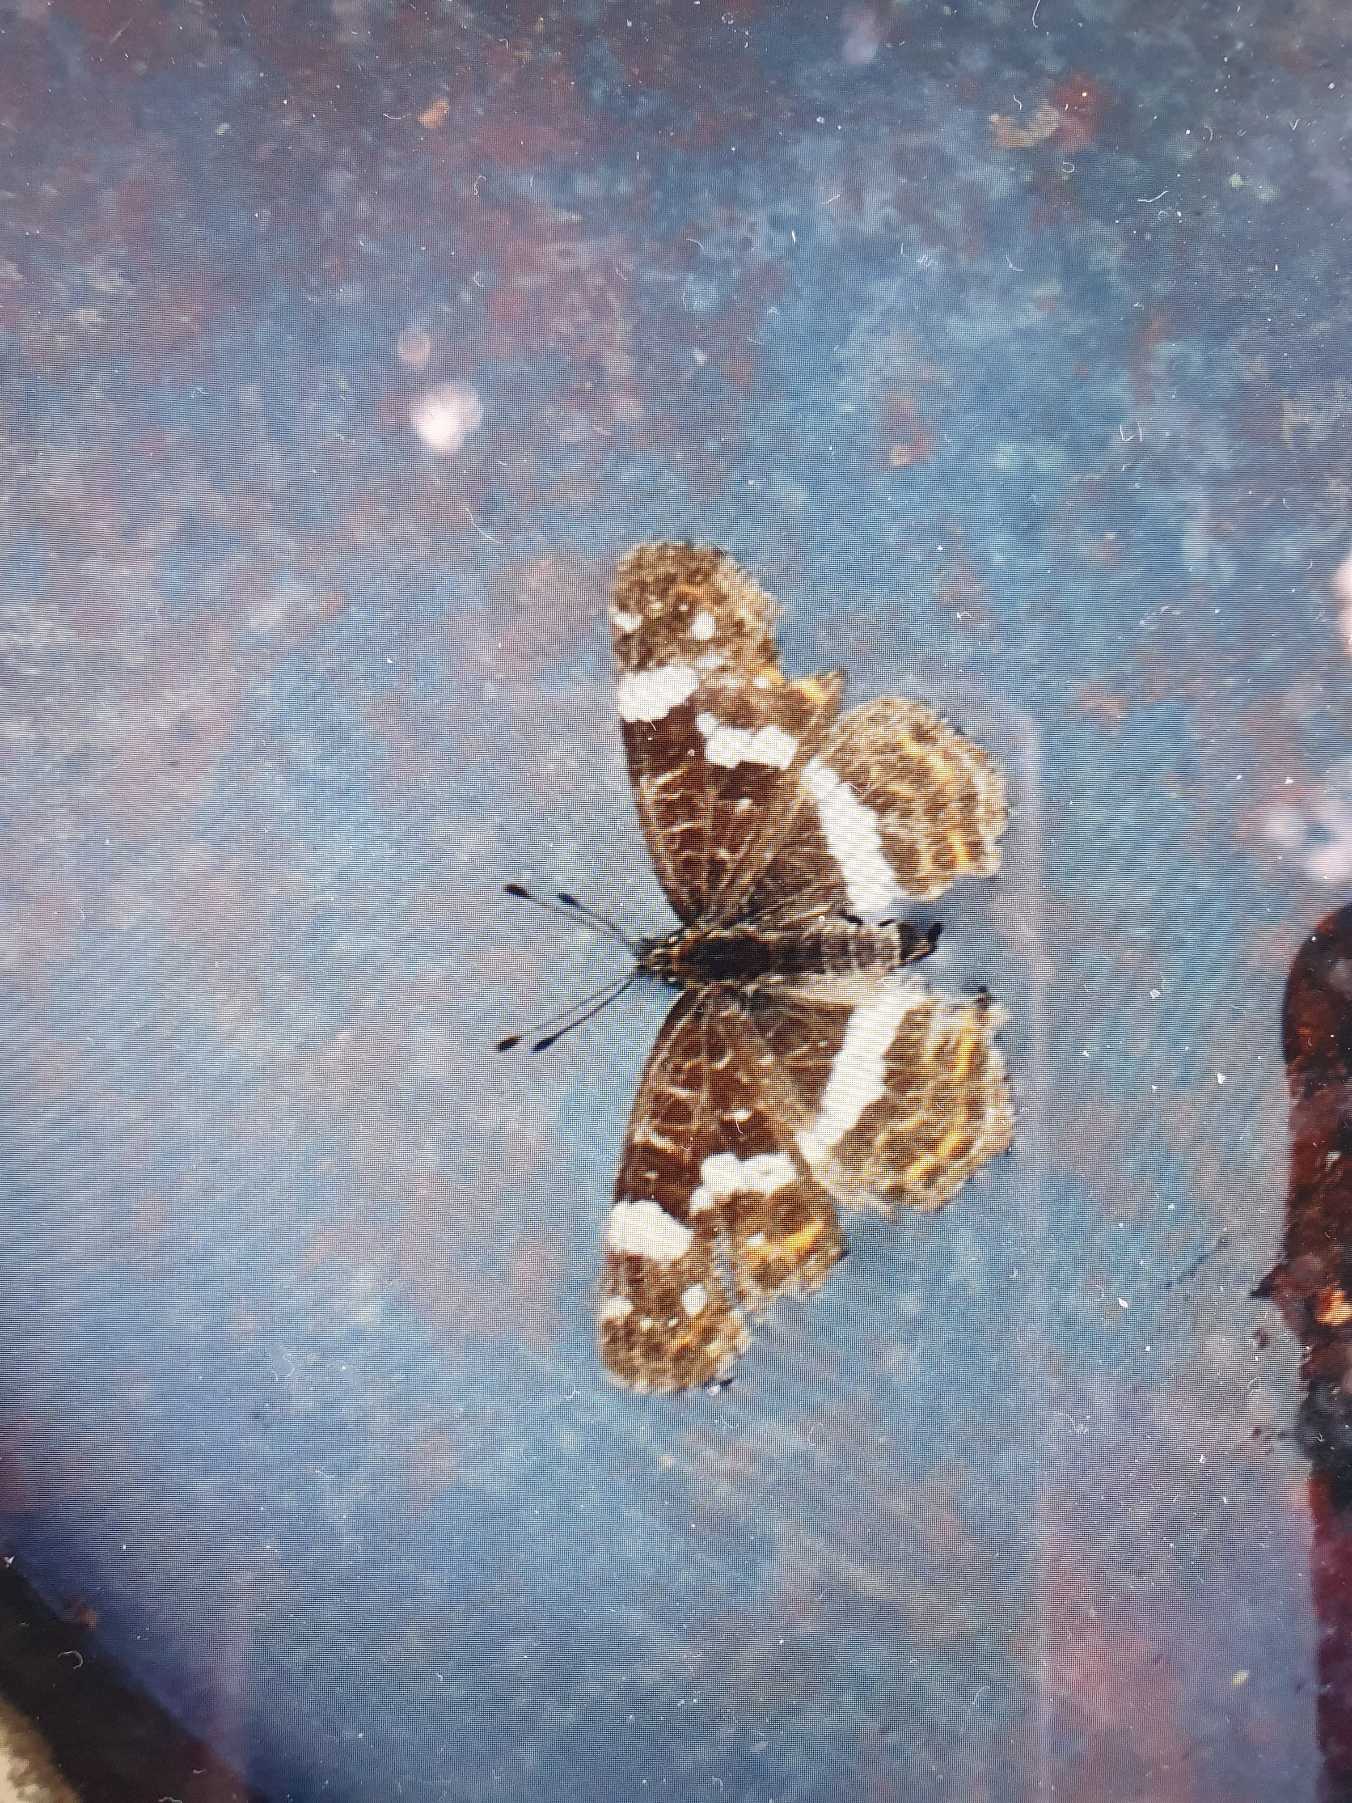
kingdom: Animalia
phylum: Arthropoda
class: Insecta
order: Lepidoptera
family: Nymphalidae
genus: Araschnia
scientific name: Araschnia levana
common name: Nældesommerfugl
